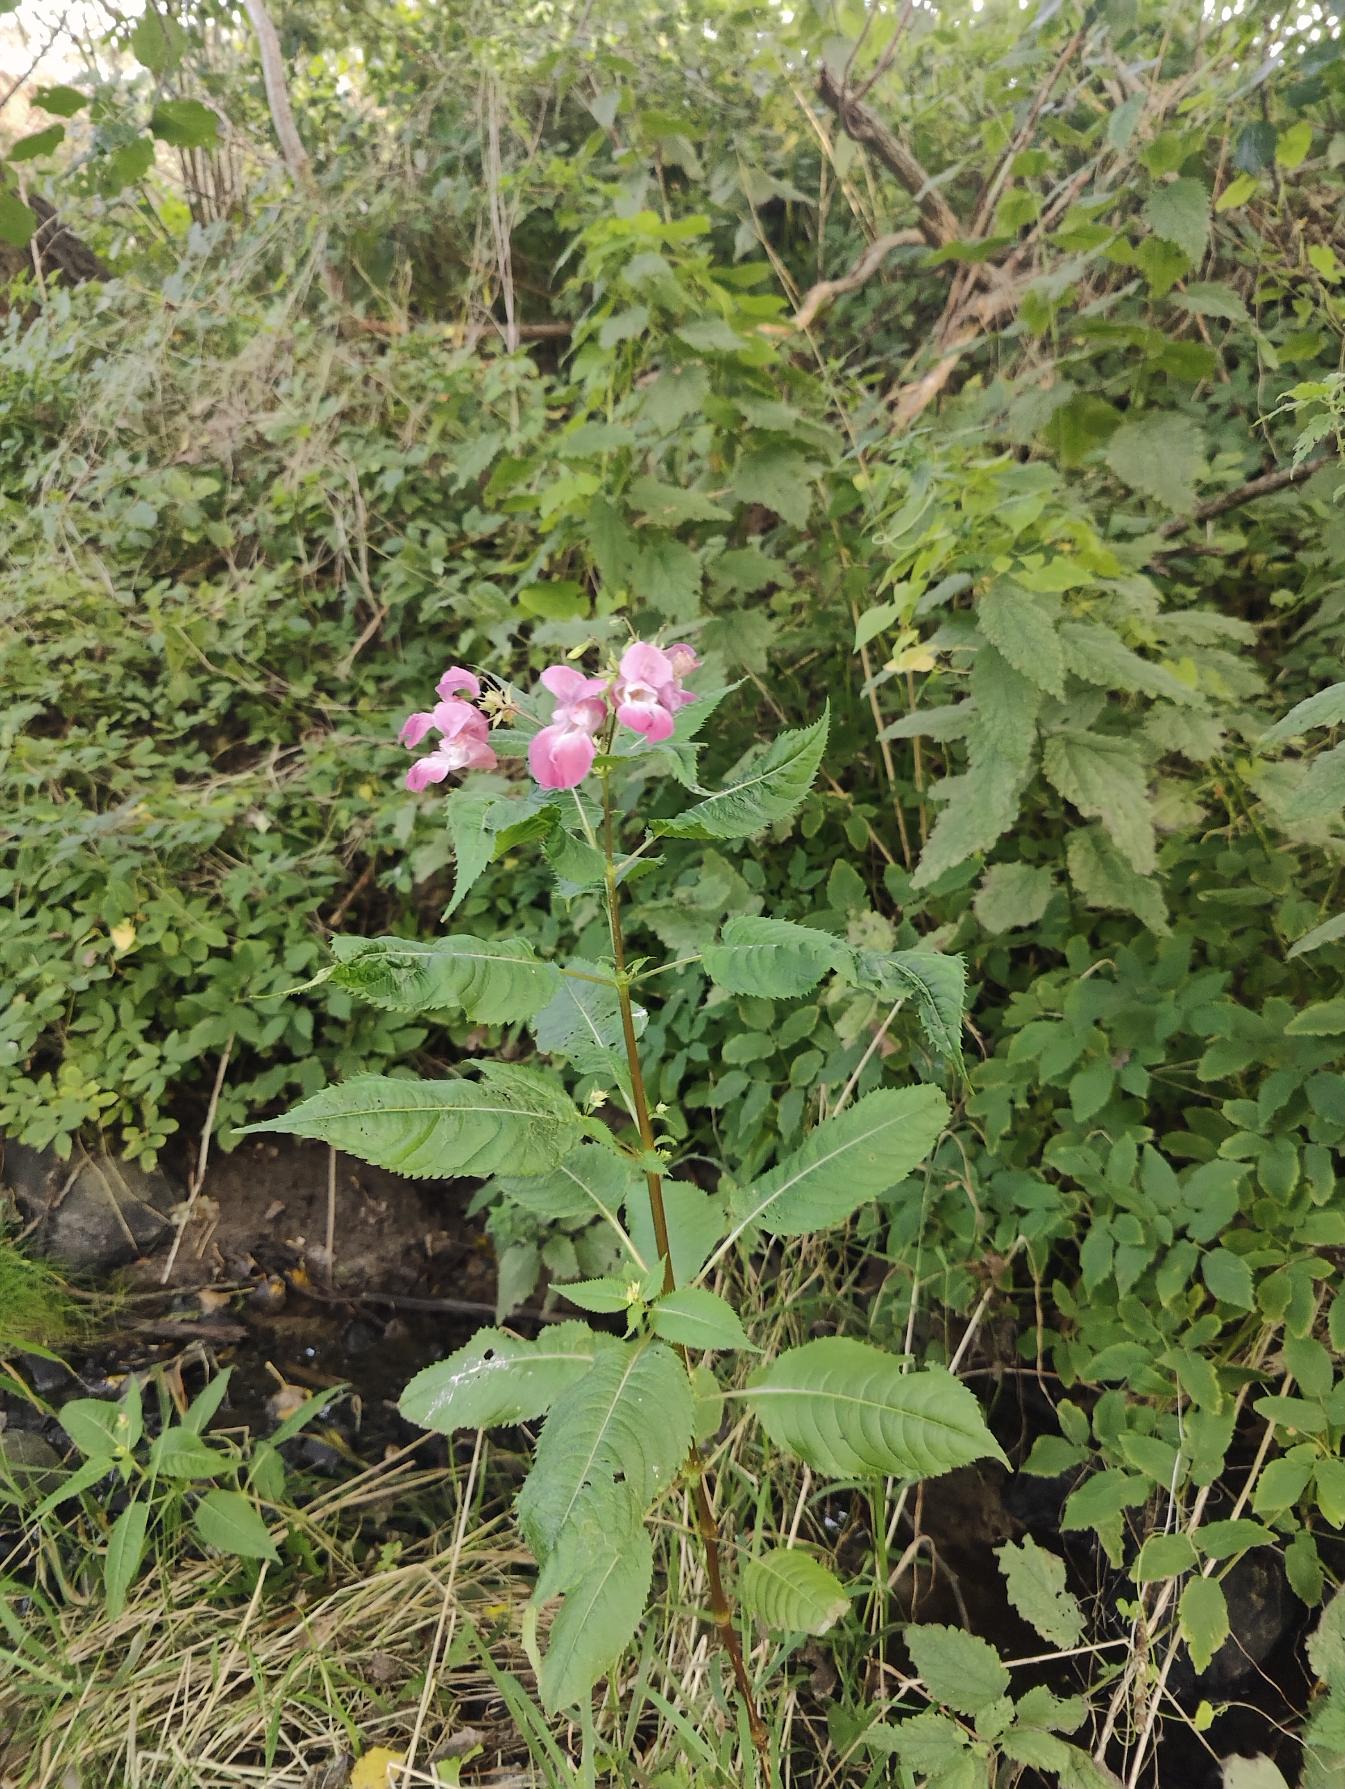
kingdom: Plantae
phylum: Tracheophyta
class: Magnoliopsida
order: Ericales
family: Balsaminaceae
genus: Impatiens
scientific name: Impatiens glandulifera
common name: Kæmpe-balsamin
